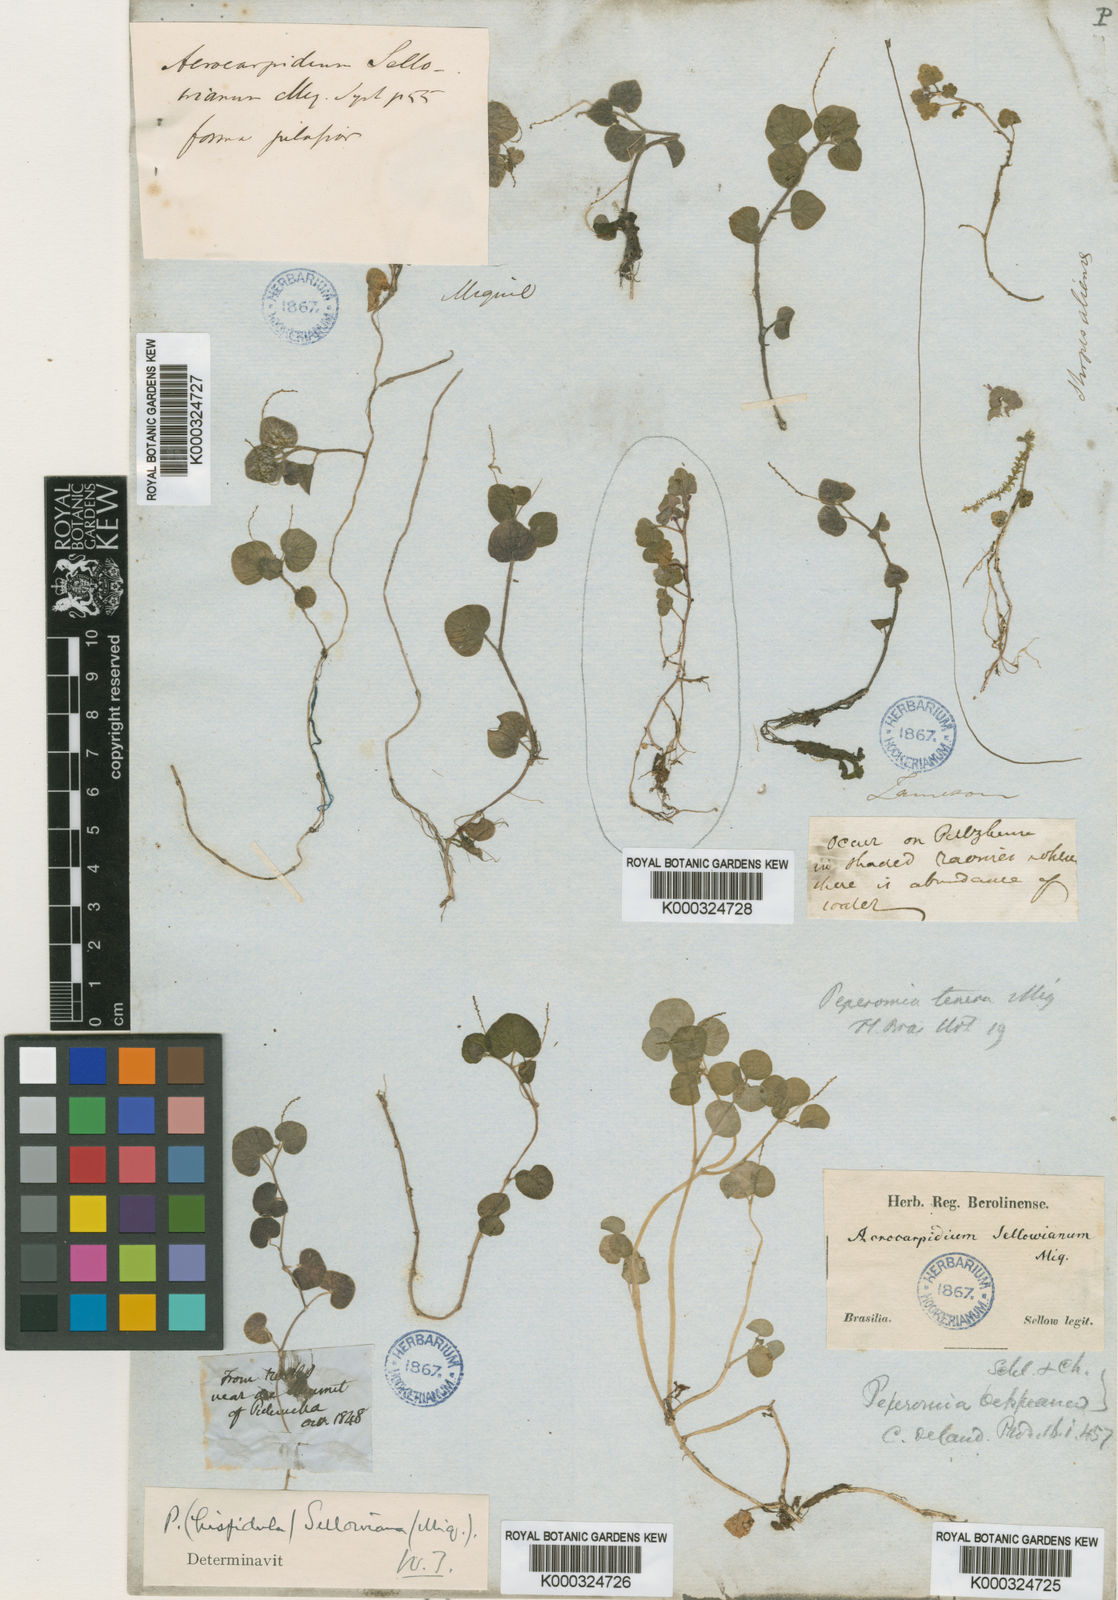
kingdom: Plantae
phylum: Tracheophyta
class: Magnoliopsida
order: Piperales
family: Piperaceae
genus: Peperomia
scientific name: Peperomia hispidula
